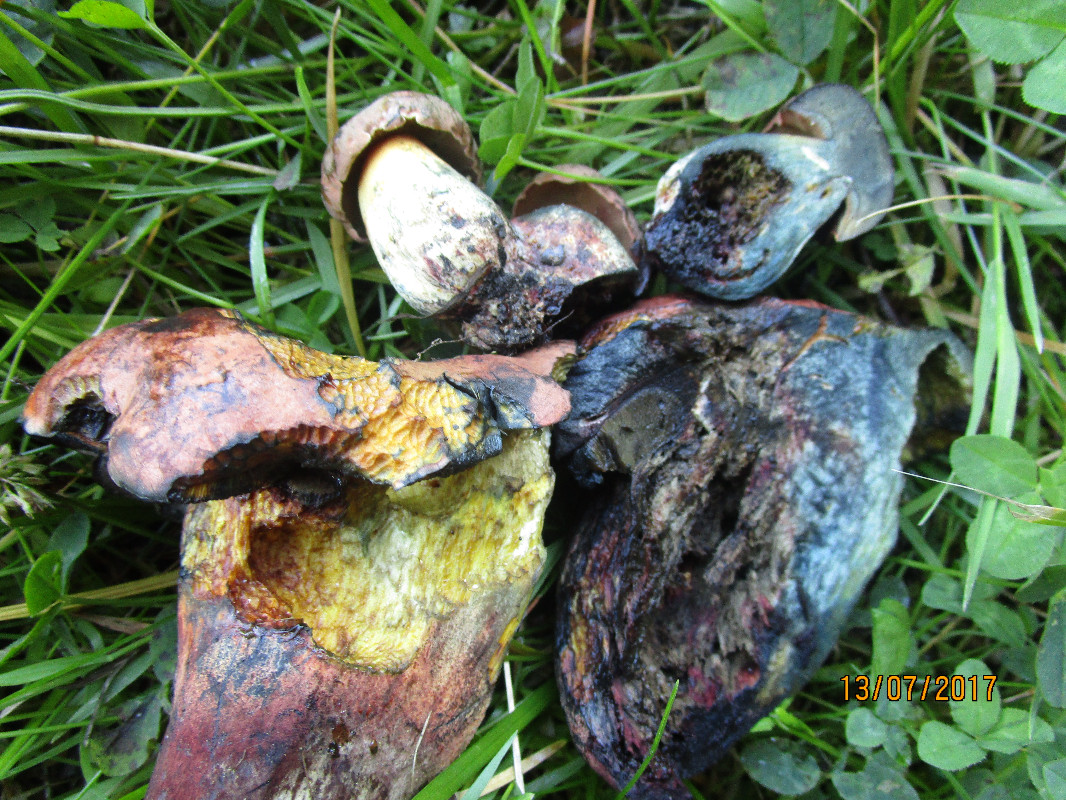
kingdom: Fungi
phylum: Basidiomycota
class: Agaricomycetes
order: Boletales
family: Boletaceae
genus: Suillellus
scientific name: Suillellus queletii
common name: glatstokket indigorørhat
